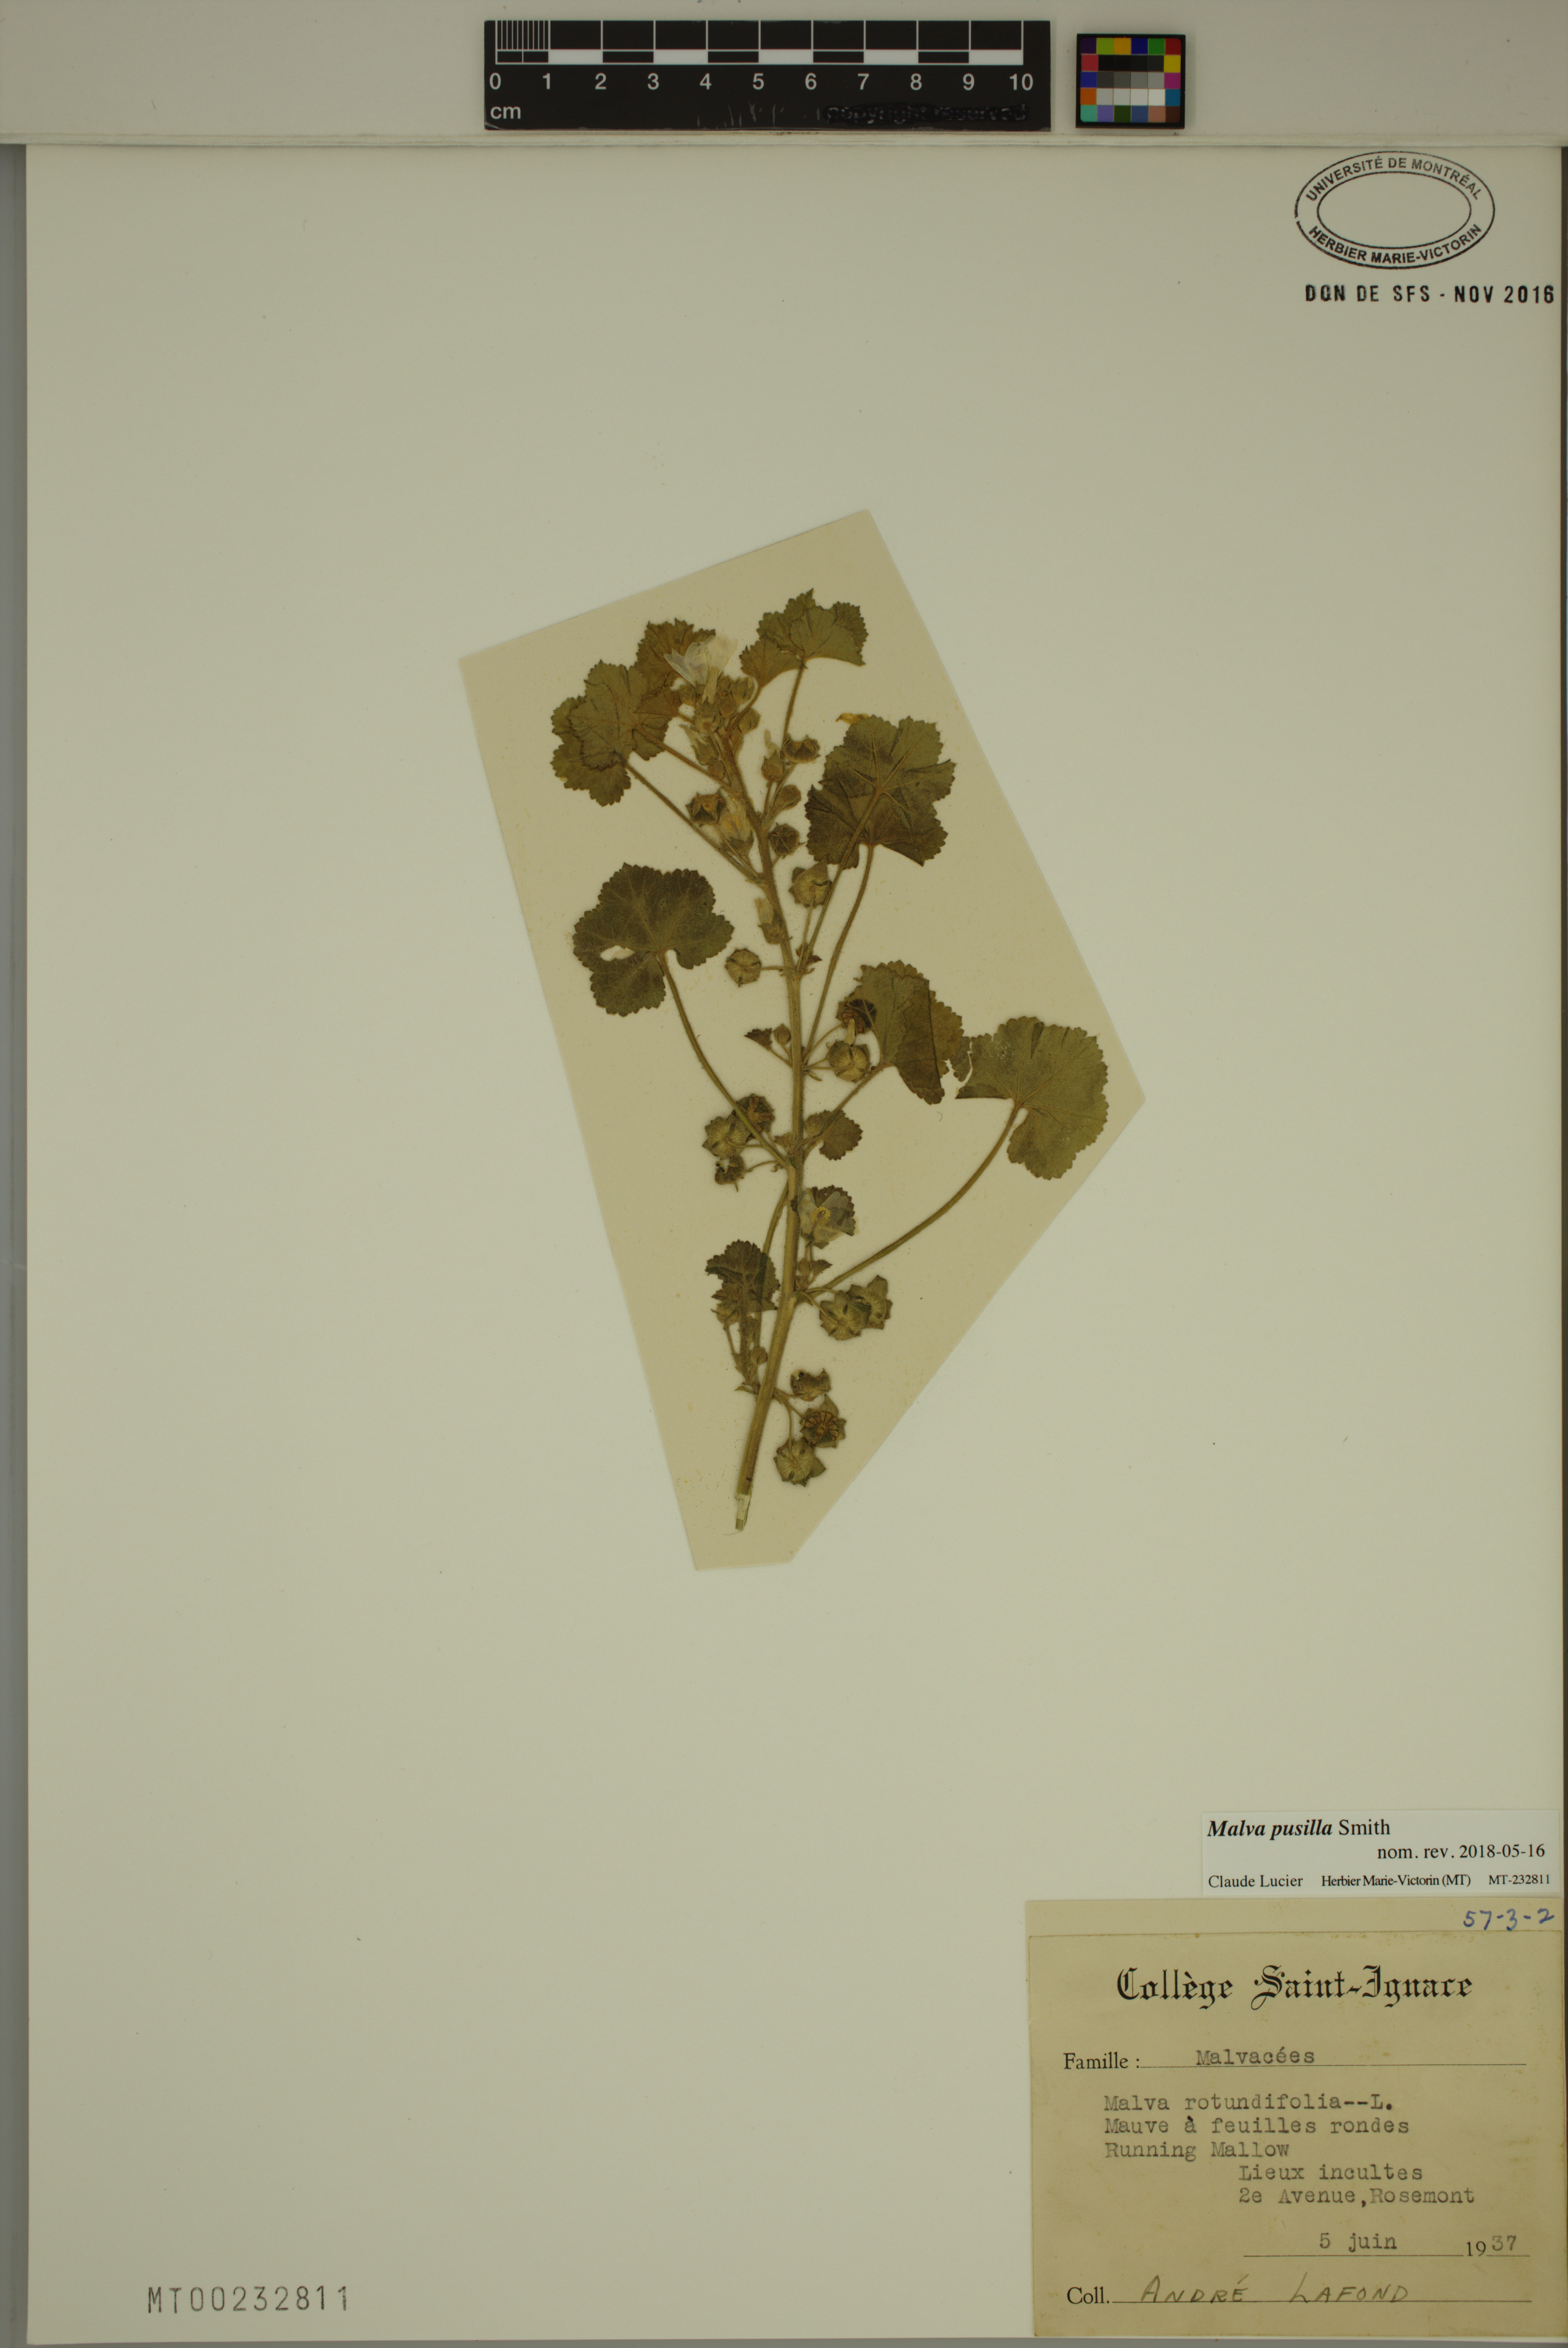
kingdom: Plantae
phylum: Tracheophyta
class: Magnoliopsida
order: Malvales
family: Malvaceae
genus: Malva
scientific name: Malva pusilla
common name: Small mallow
